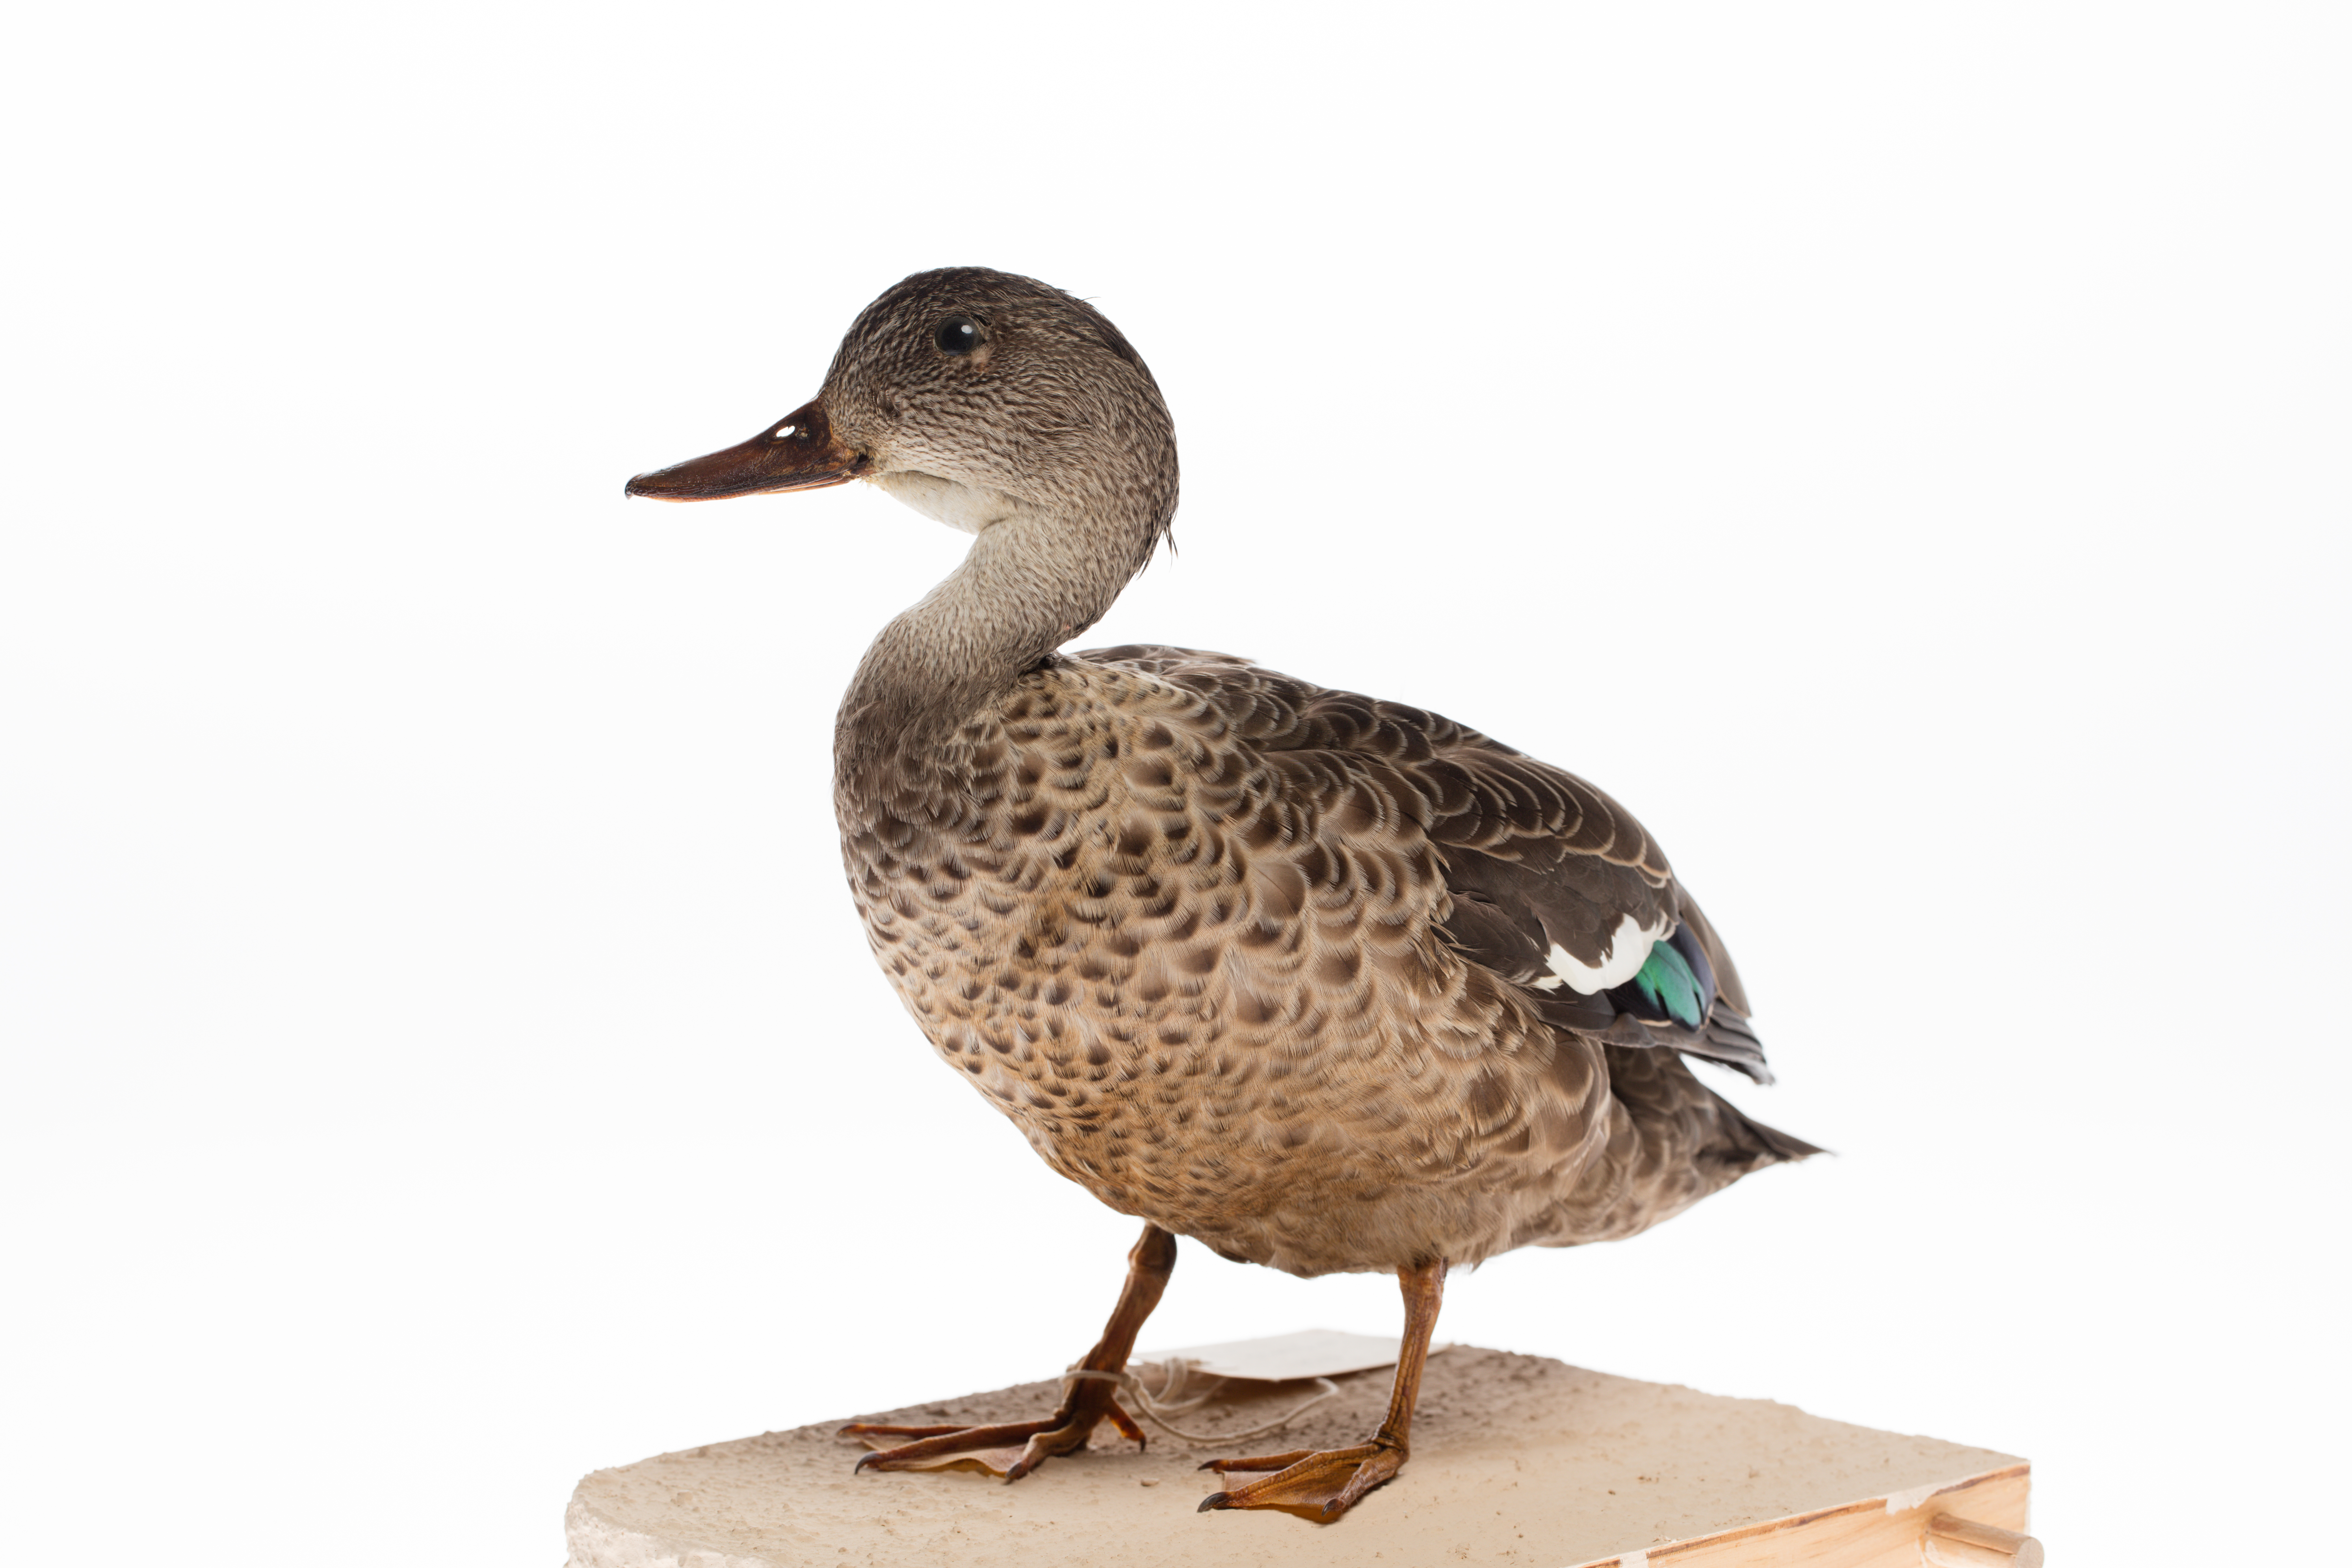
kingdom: Animalia
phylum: Chordata
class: Aves
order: Anseriformes
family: Anatidae
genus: Anas
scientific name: Anas gracilis
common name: Grey teal
